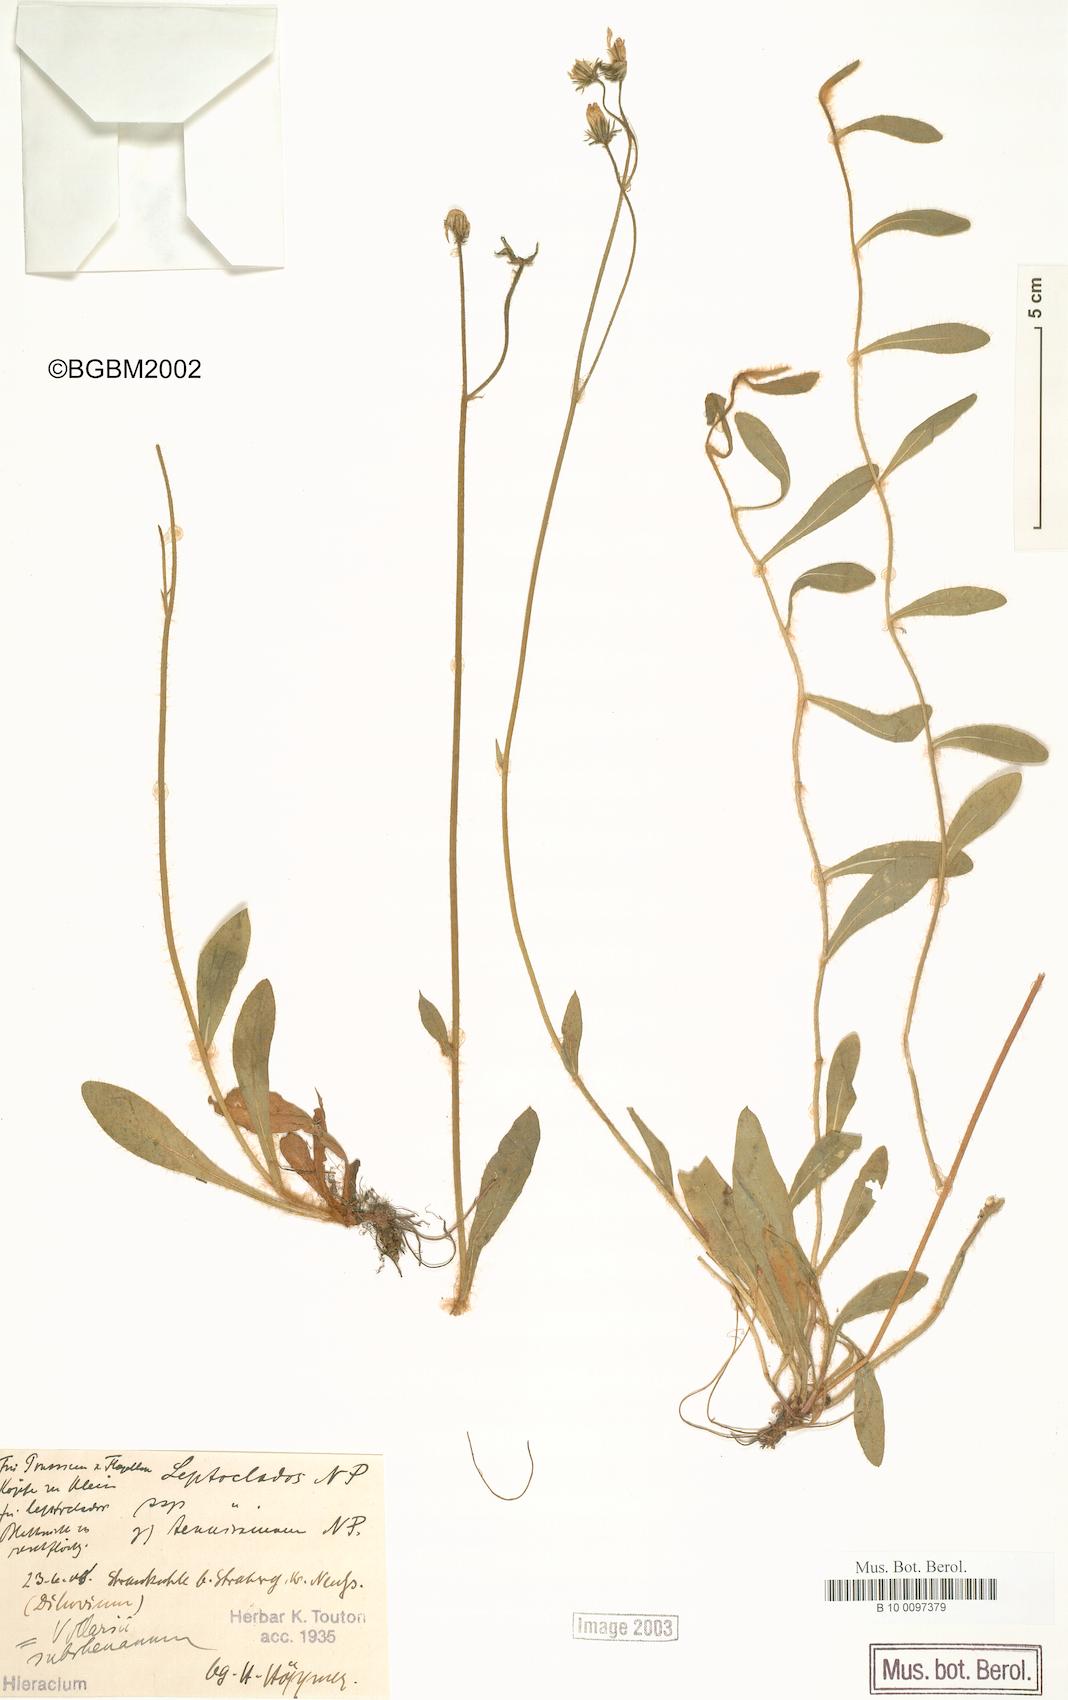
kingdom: Plantae
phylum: Tracheophyta
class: Magnoliopsida
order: Asterales
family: Asteraceae
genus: Pilosella
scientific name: Pilosella acutifolia
